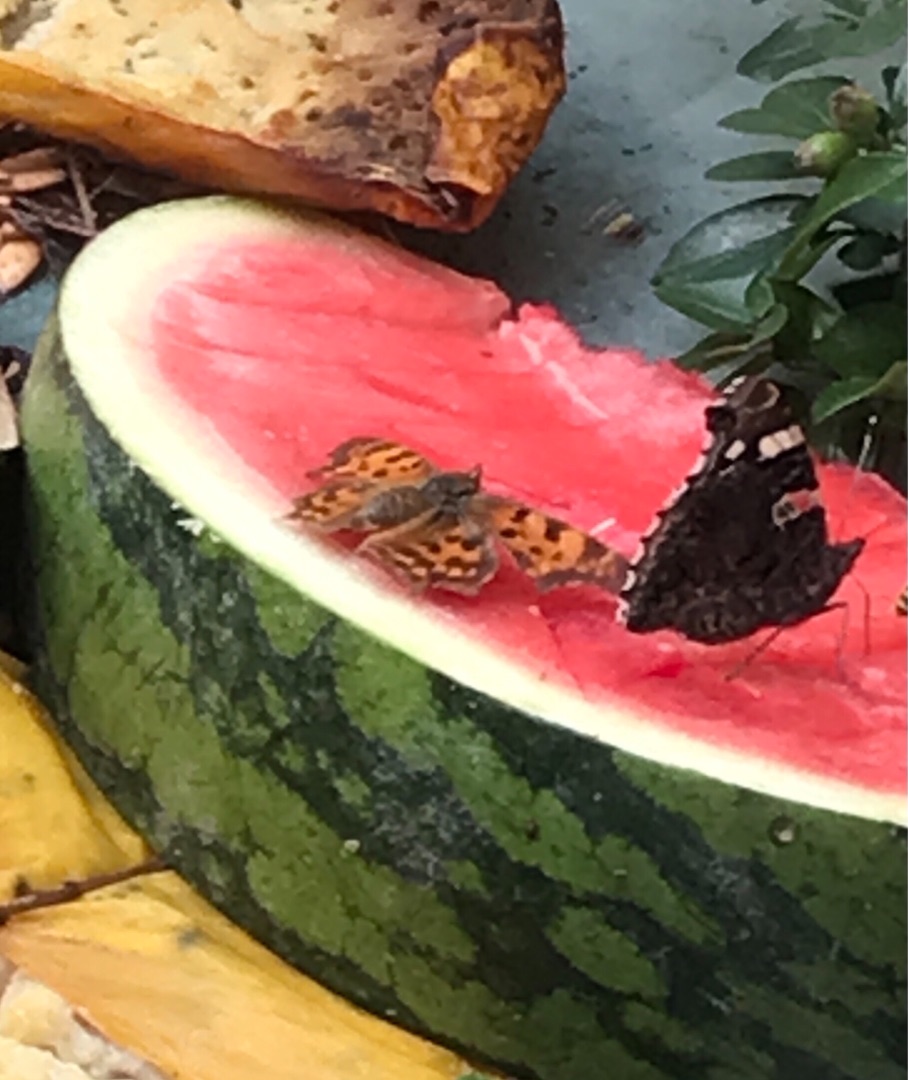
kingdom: Animalia
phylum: Arthropoda
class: Insecta
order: Lepidoptera
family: Nymphalidae
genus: Polygonia
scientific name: Polygonia c-album
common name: Det hvide C
